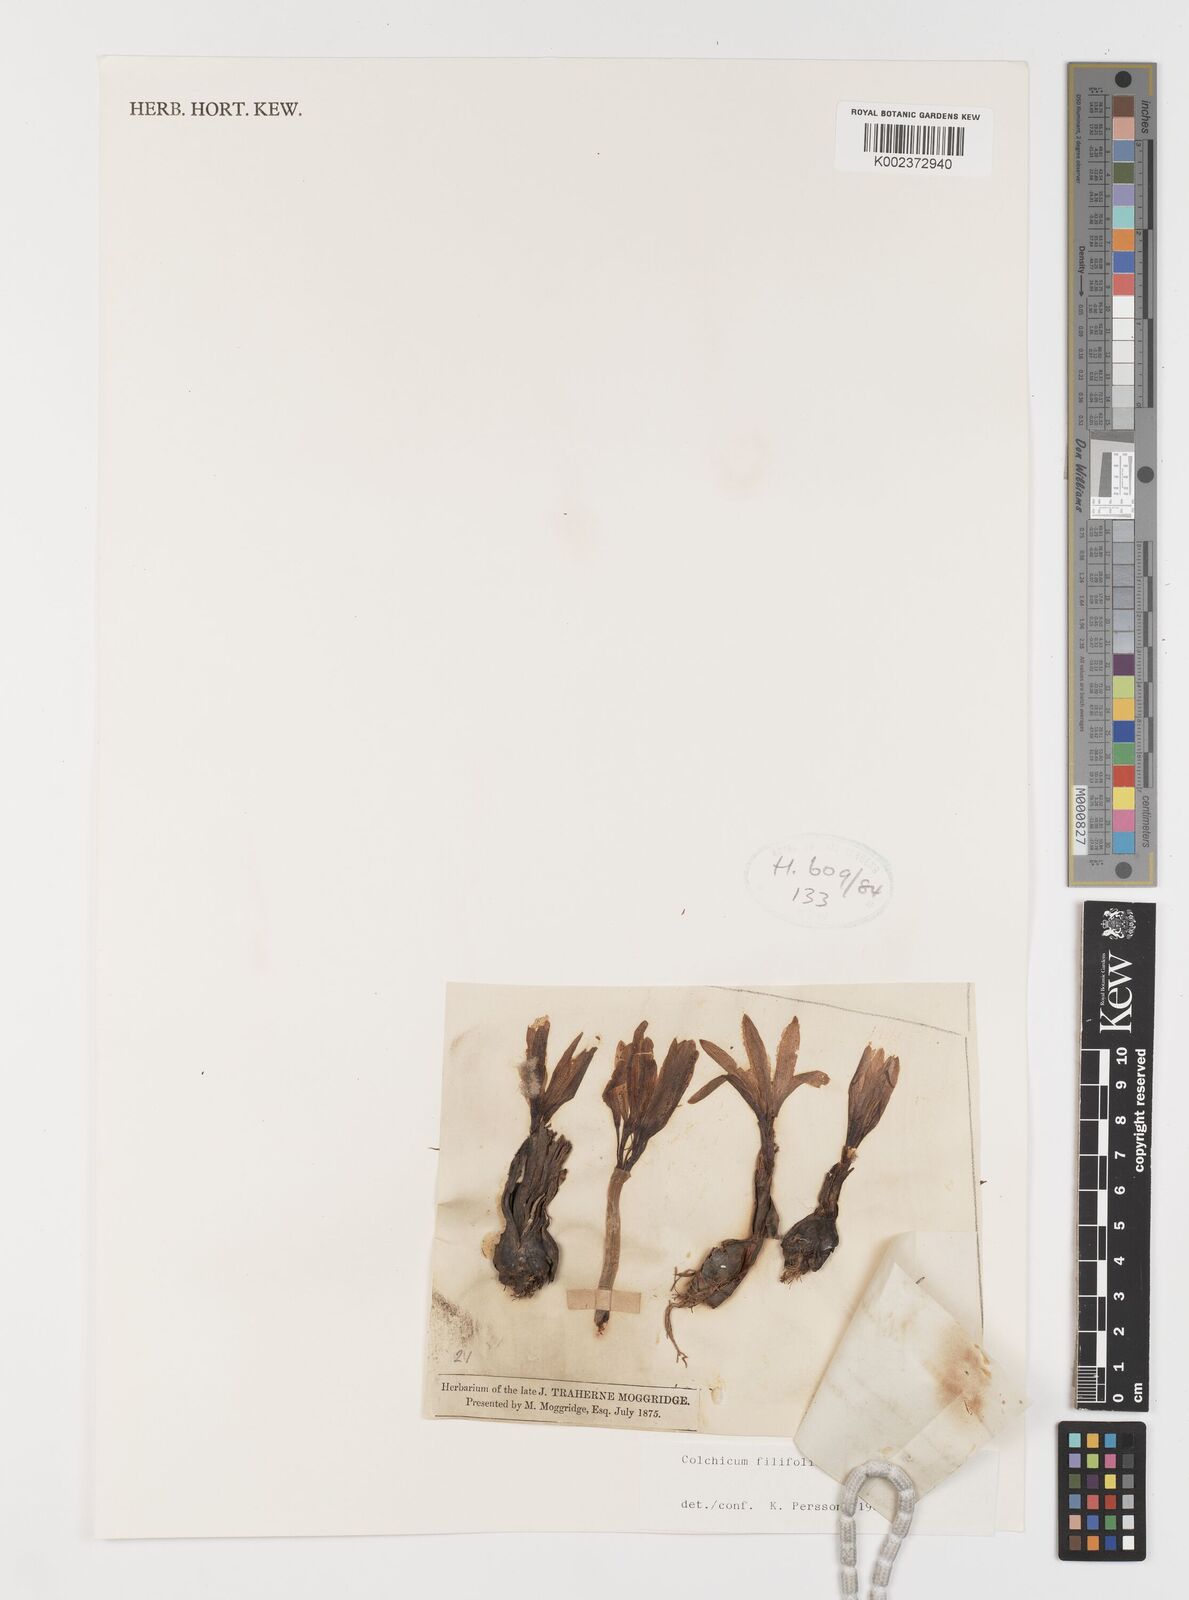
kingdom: Plantae
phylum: Tracheophyta
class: Liliopsida
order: Liliales
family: Colchicaceae
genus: Colchicum
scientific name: Colchicum filifolium
